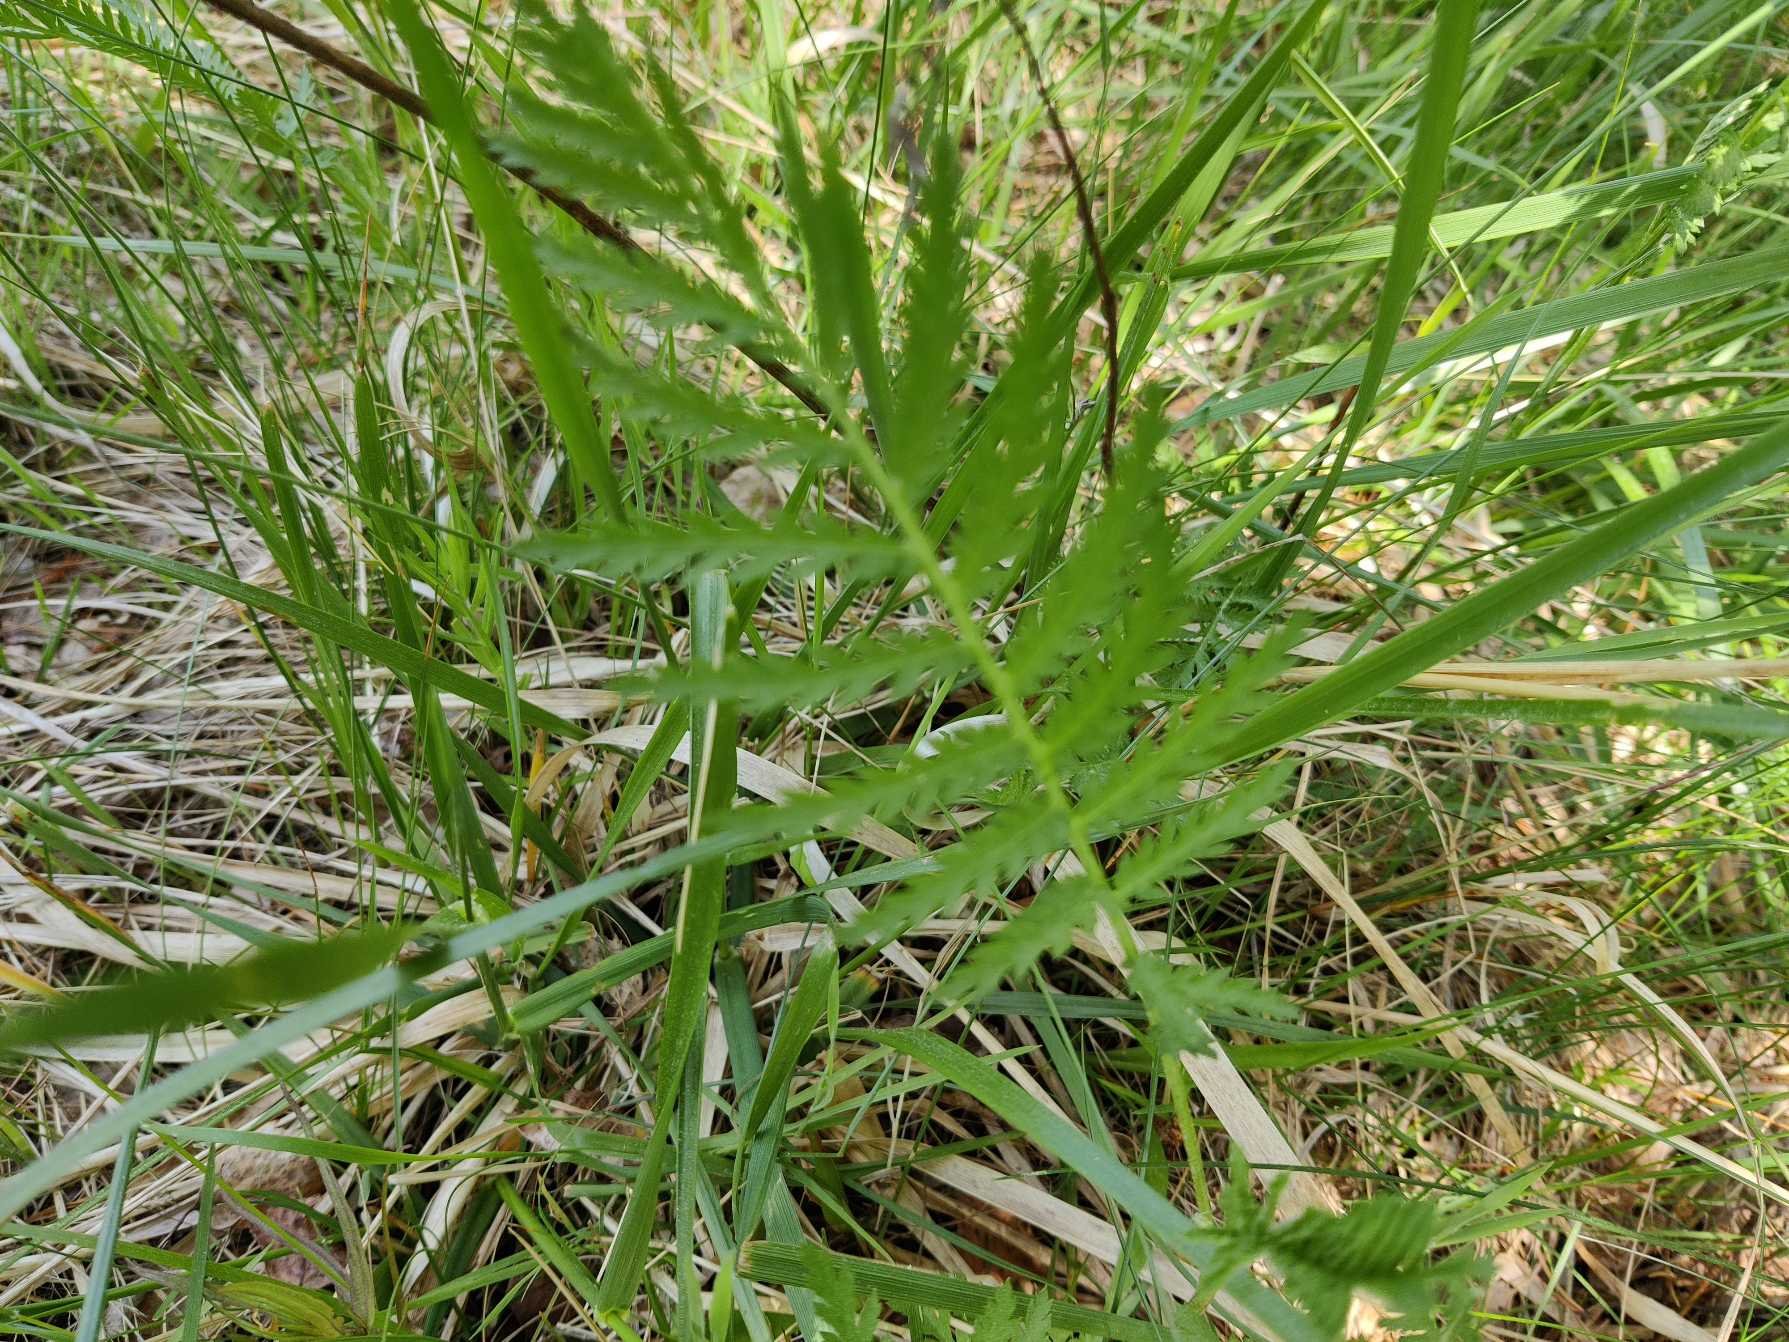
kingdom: Plantae
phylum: Tracheophyta
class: Magnoliopsida
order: Asterales
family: Asteraceae
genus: Tanacetum
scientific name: Tanacetum vulgare
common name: Rejnfan
